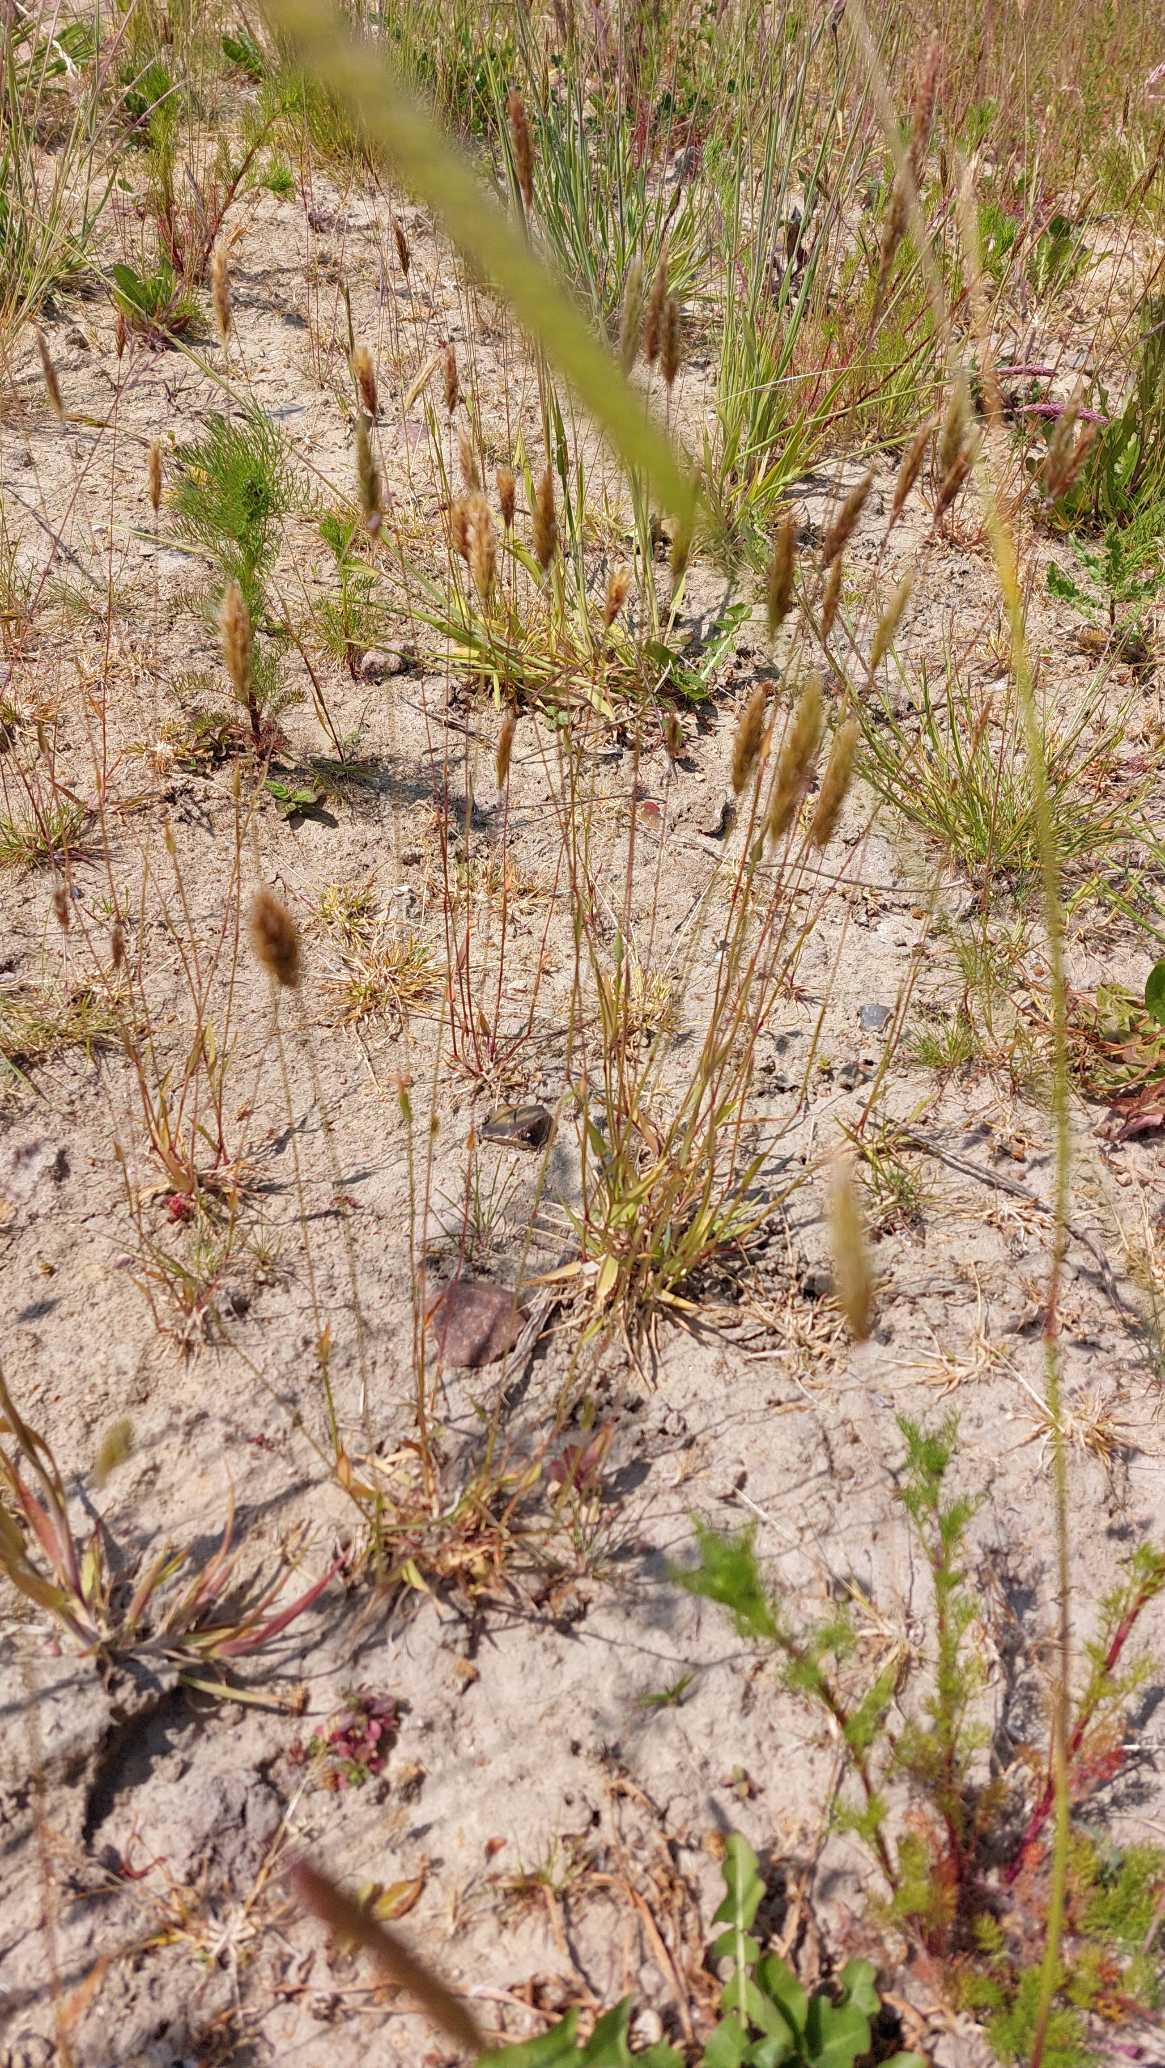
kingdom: Plantae
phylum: Tracheophyta
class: Liliopsida
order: Poales
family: Poaceae
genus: Anthoxanthum
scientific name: Anthoxanthum odoratum
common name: Vellugtende gulaks
